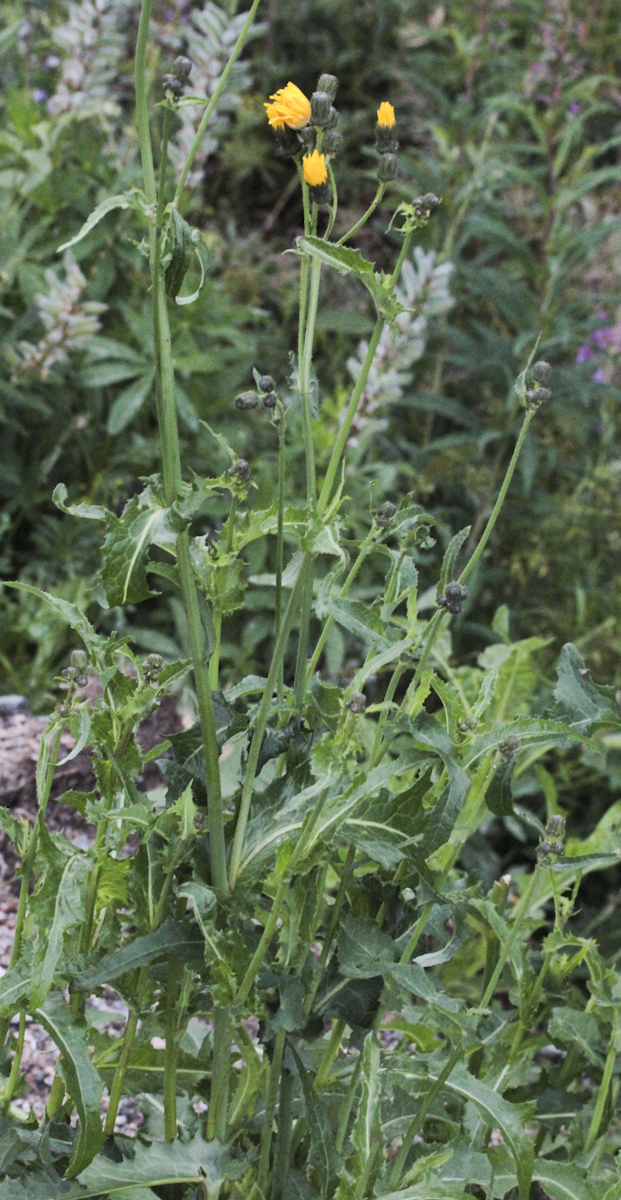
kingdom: Plantae
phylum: Tracheophyta
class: Magnoliopsida
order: Asterales
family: Asteraceae
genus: Sonchus
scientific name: Sonchus arvensis
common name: Perennial sow-thistle
